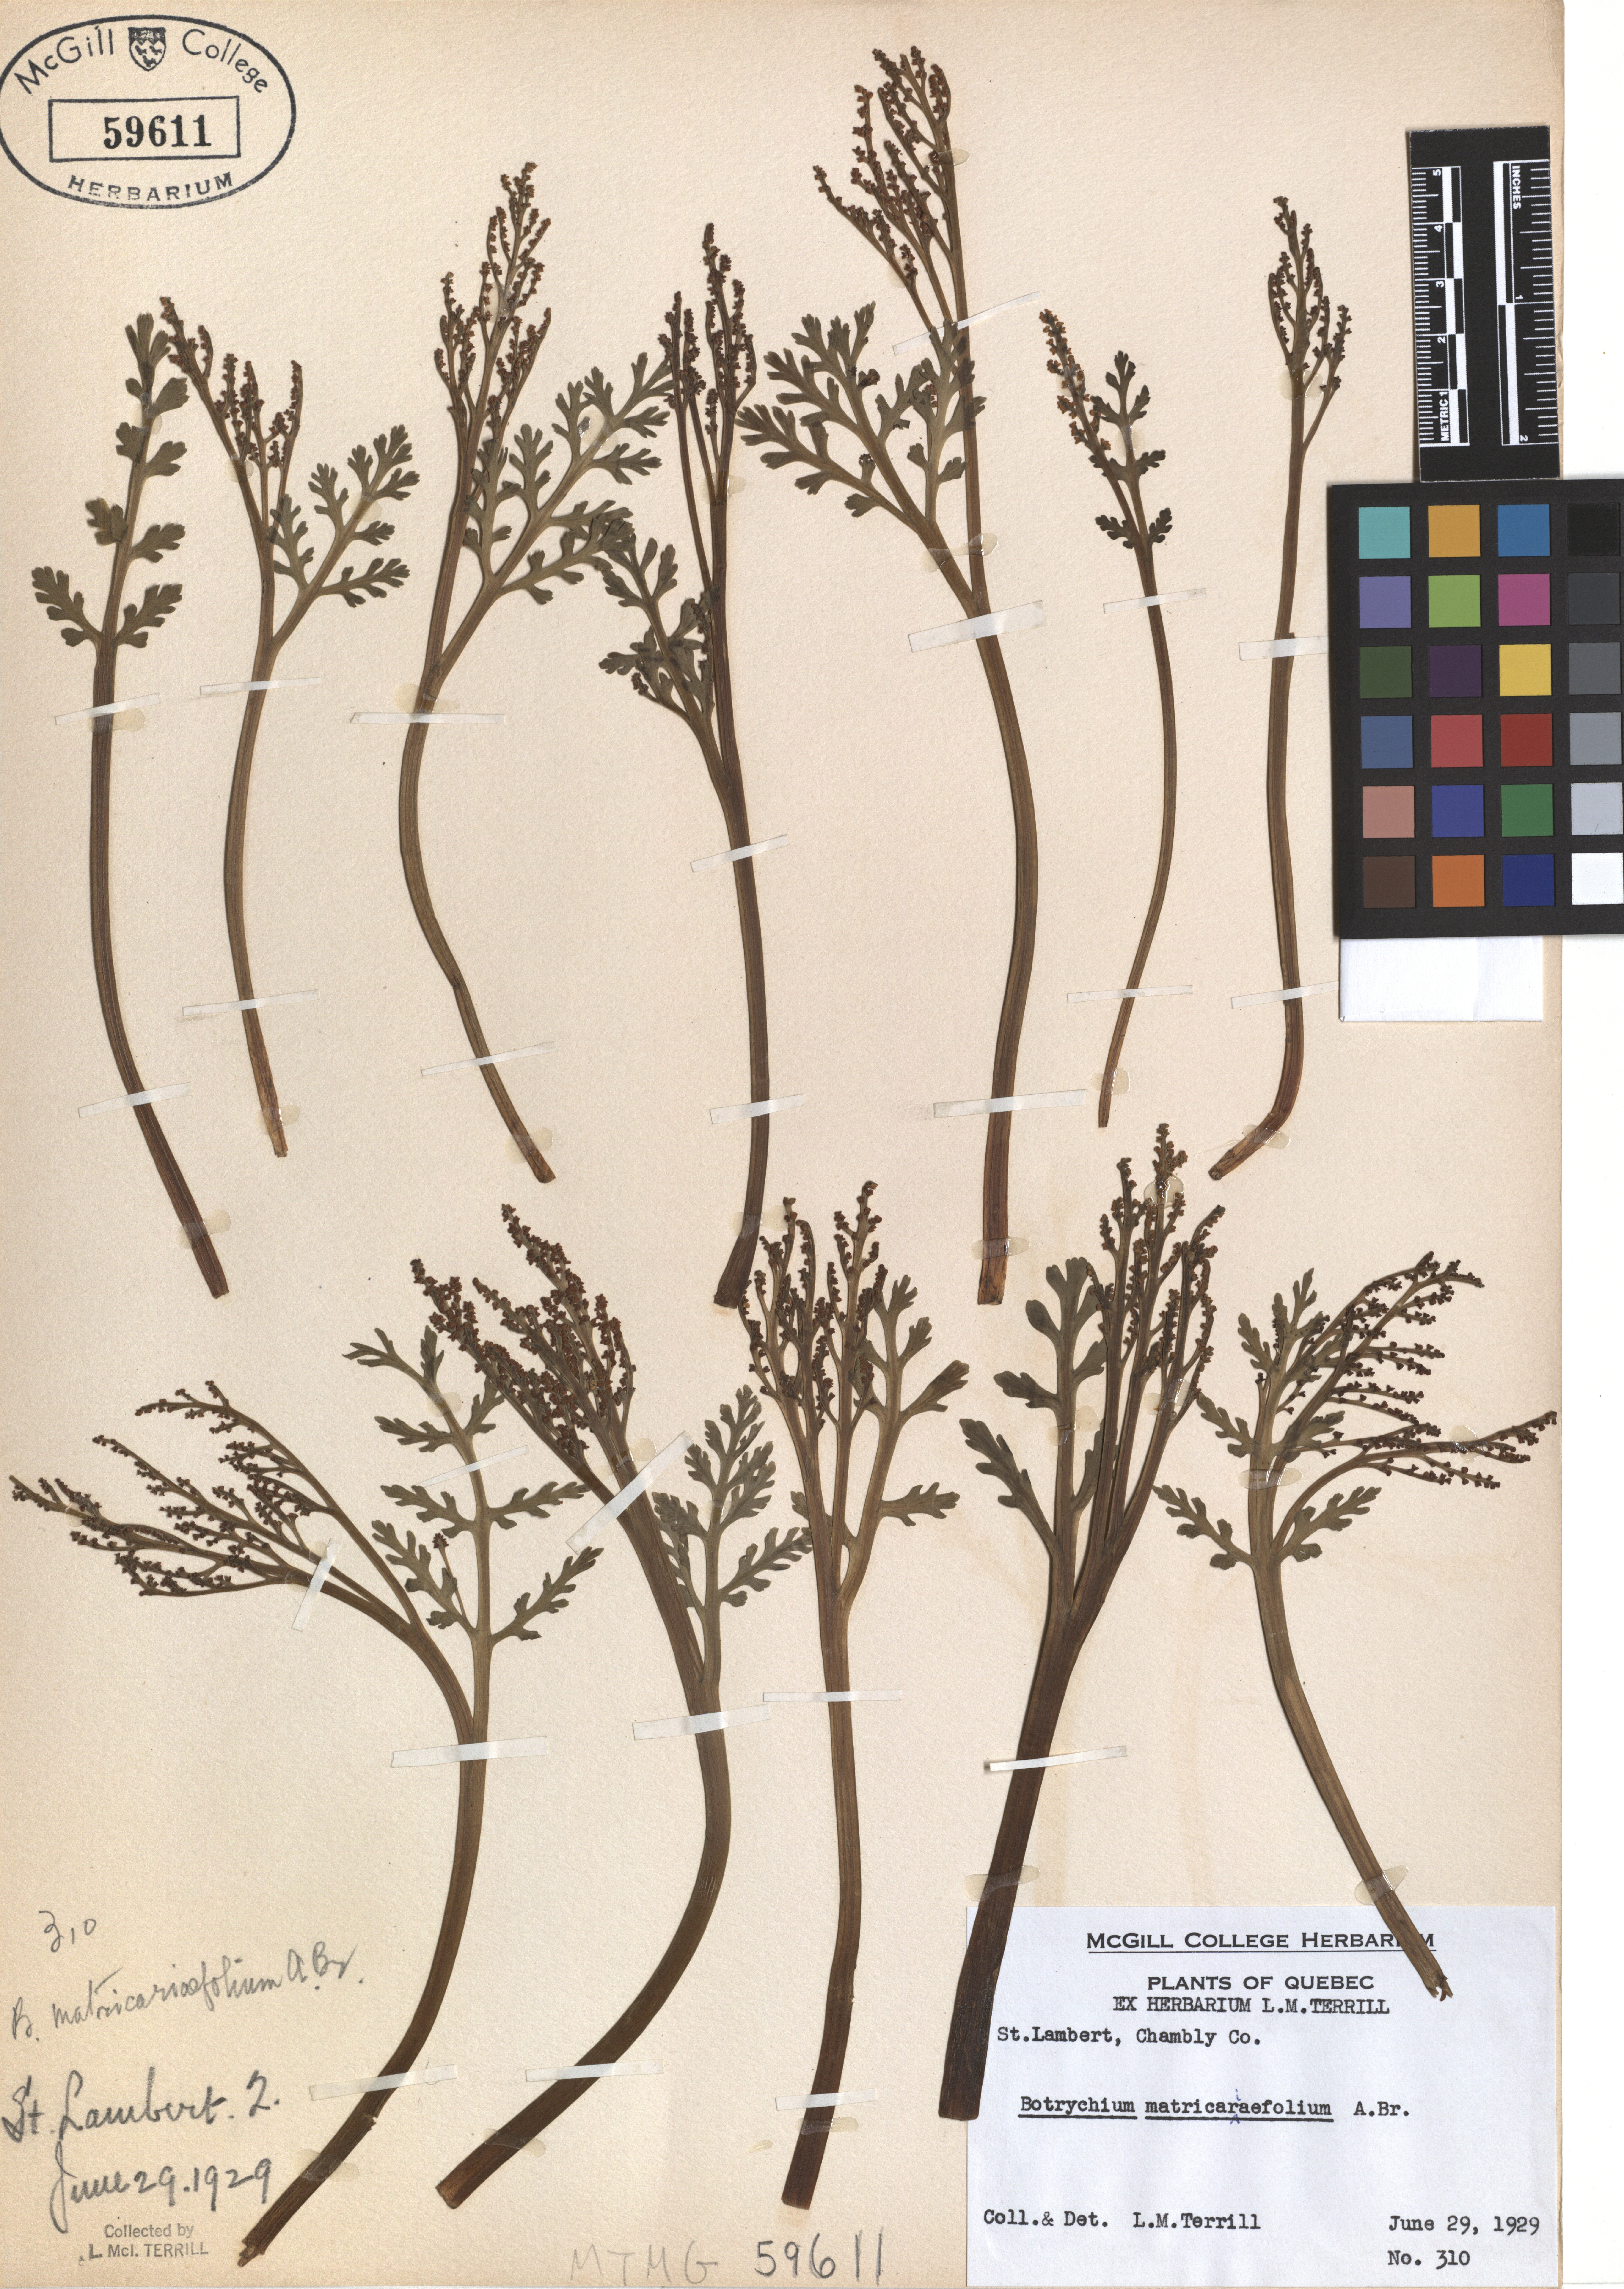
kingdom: Plantae
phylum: Tracheophyta
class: Polypodiopsida
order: Ophioglossales
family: Ophioglossaceae
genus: Botrychium
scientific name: Botrychium matricariifolium
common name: Branched moonwort
